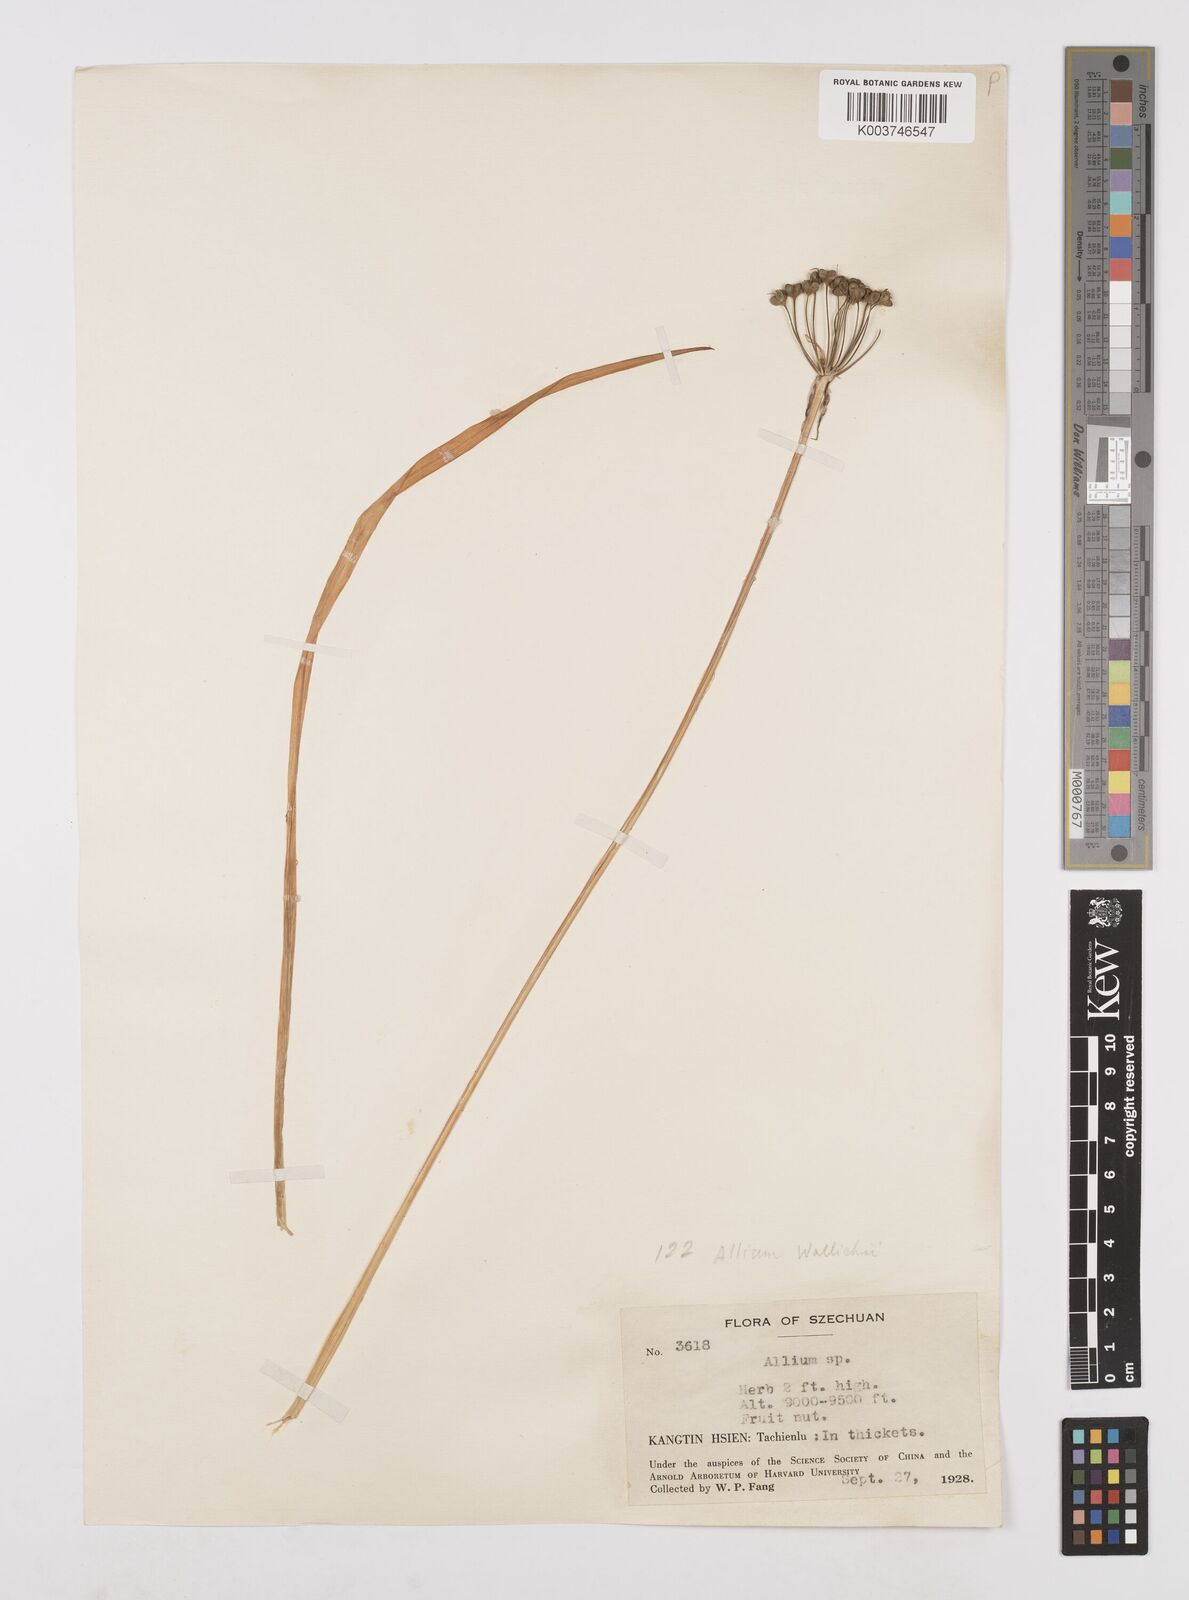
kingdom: Plantae
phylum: Tracheophyta
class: Liliopsida
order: Asparagales
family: Amaryllidaceae
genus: Allium
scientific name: Allium wallichii
